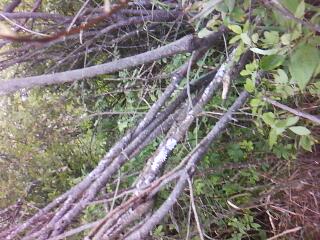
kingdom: Plantae
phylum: Tracheophyta
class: Polypodiopsida
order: Polypodiales
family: Thelypteridaceae
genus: Thelypteris
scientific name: Thelypteris palustris
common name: Marsh fern
